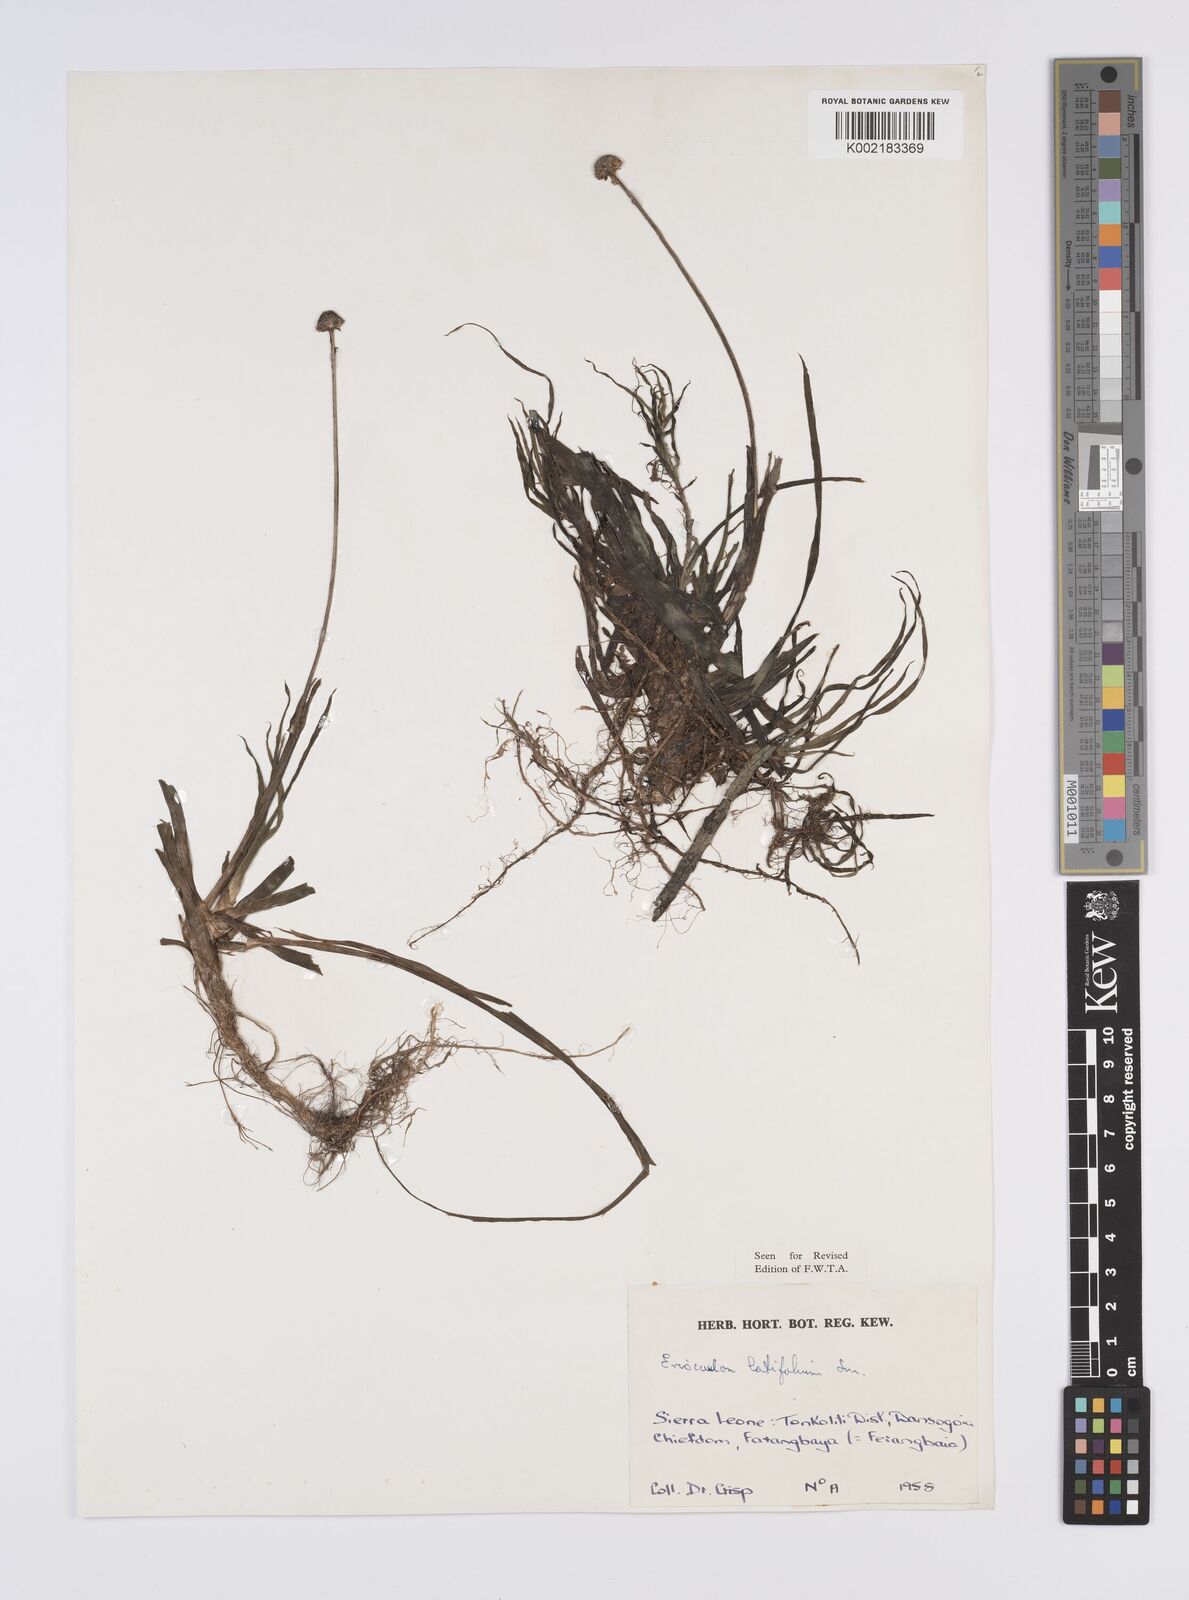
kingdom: Plantae
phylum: Tracheophyta
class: Liliopsida
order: Poales
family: Eriocaulaceae
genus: Eriocaulon
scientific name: Eriocaulon latifolium
